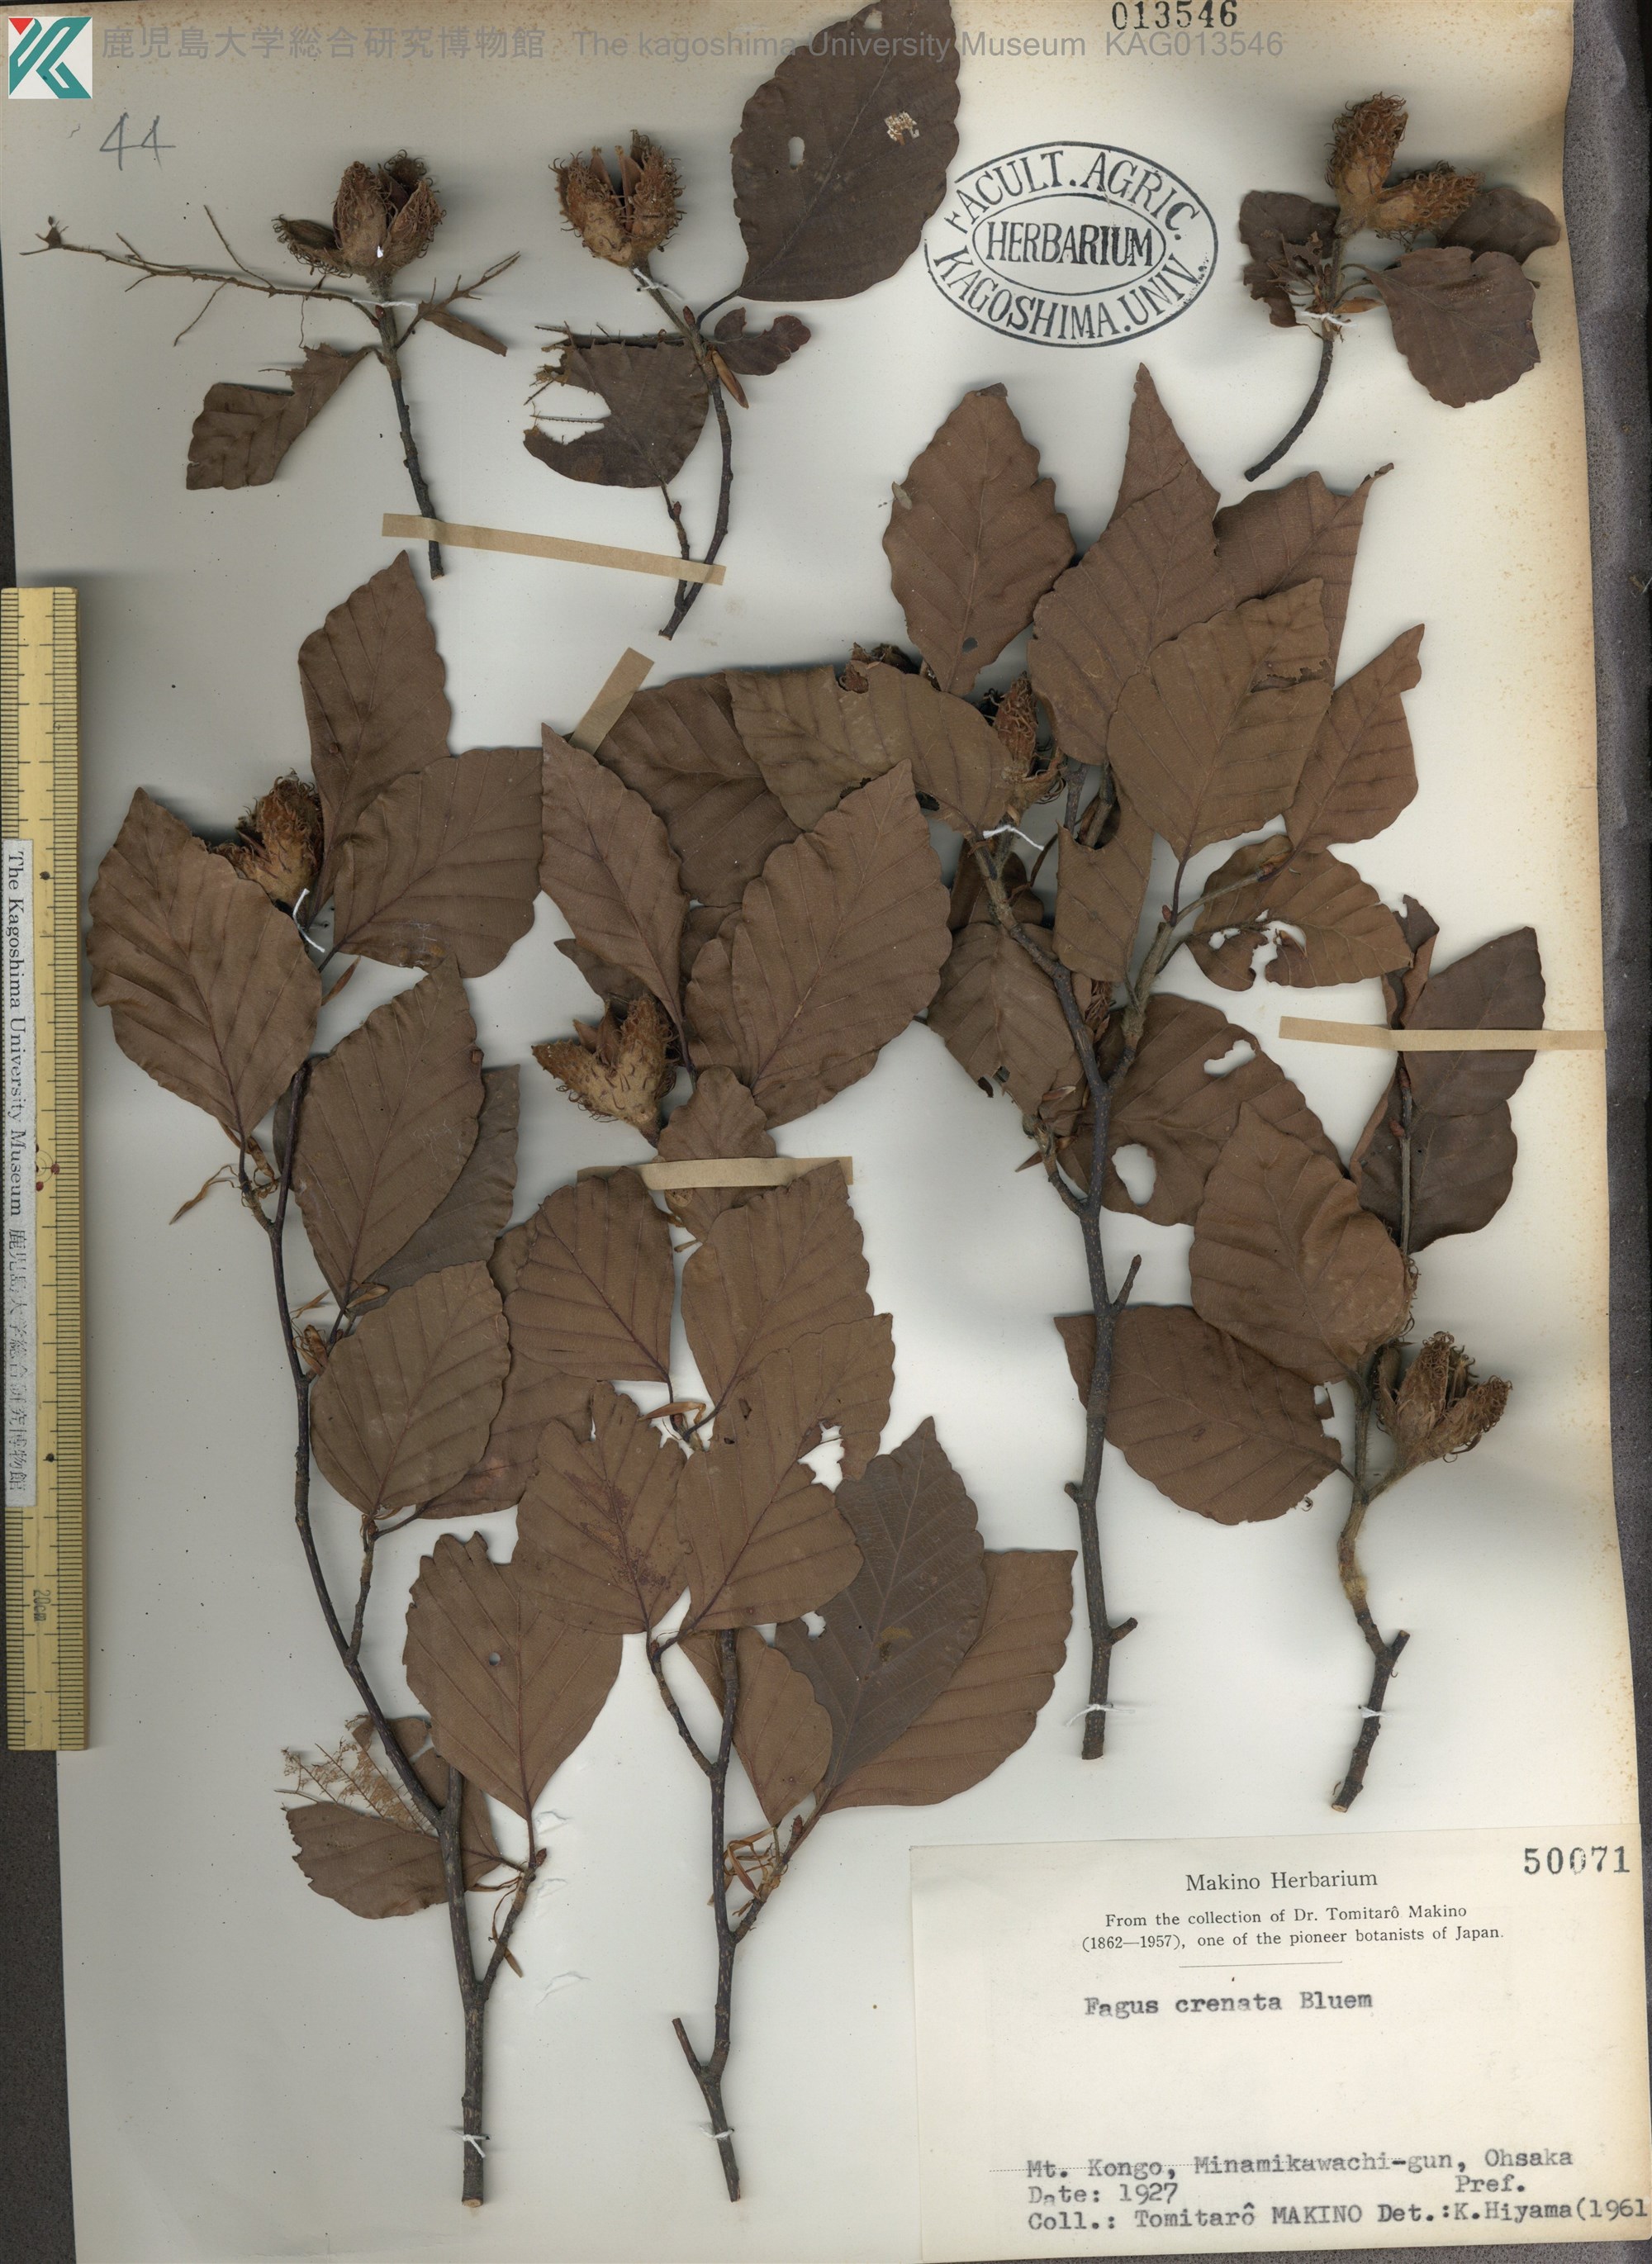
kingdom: Plantae
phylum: Tracheophyta
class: Magnoliopsida
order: Fagales
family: Fagaceae
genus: Fagus
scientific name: Fagus crenata
